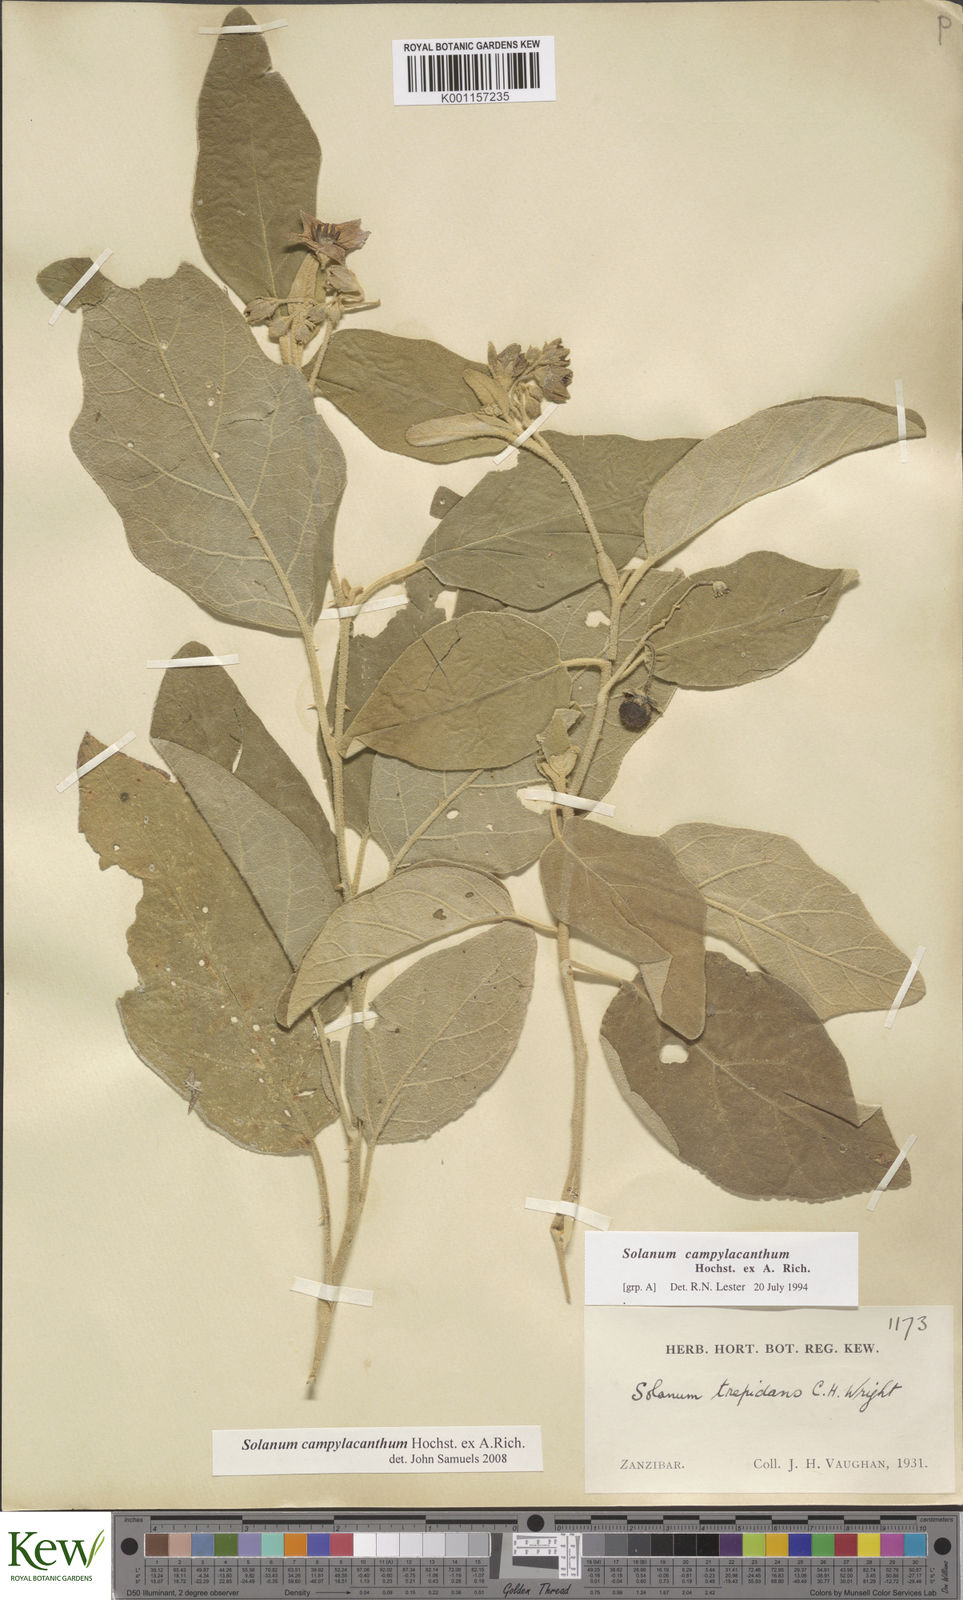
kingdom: Plantae
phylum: Tracheophyta
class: Magnoliopsida
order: Solanales
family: Solanaceae
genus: Solanum
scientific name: Solanum campylacanthum
